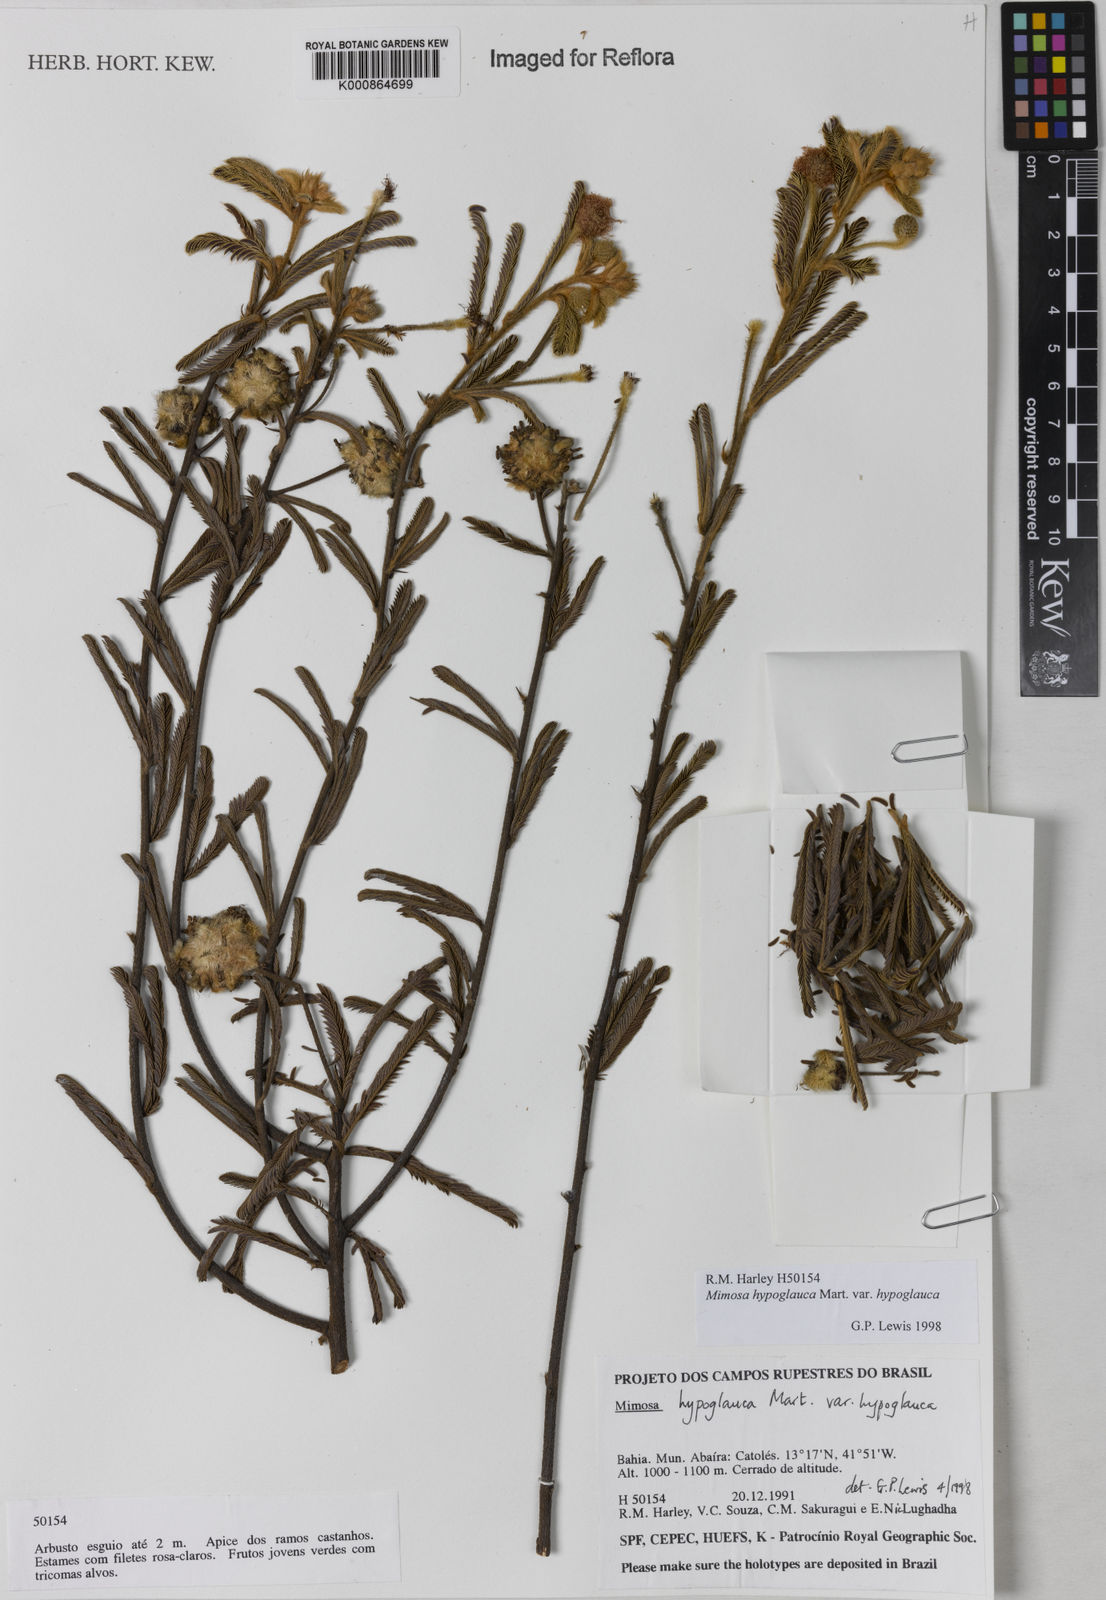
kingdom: Plantae
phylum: Tracheophyta
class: Magnoliopsida
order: Fabales
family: Fabaceae
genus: Mimosa
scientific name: Mimosa hypoglauca
